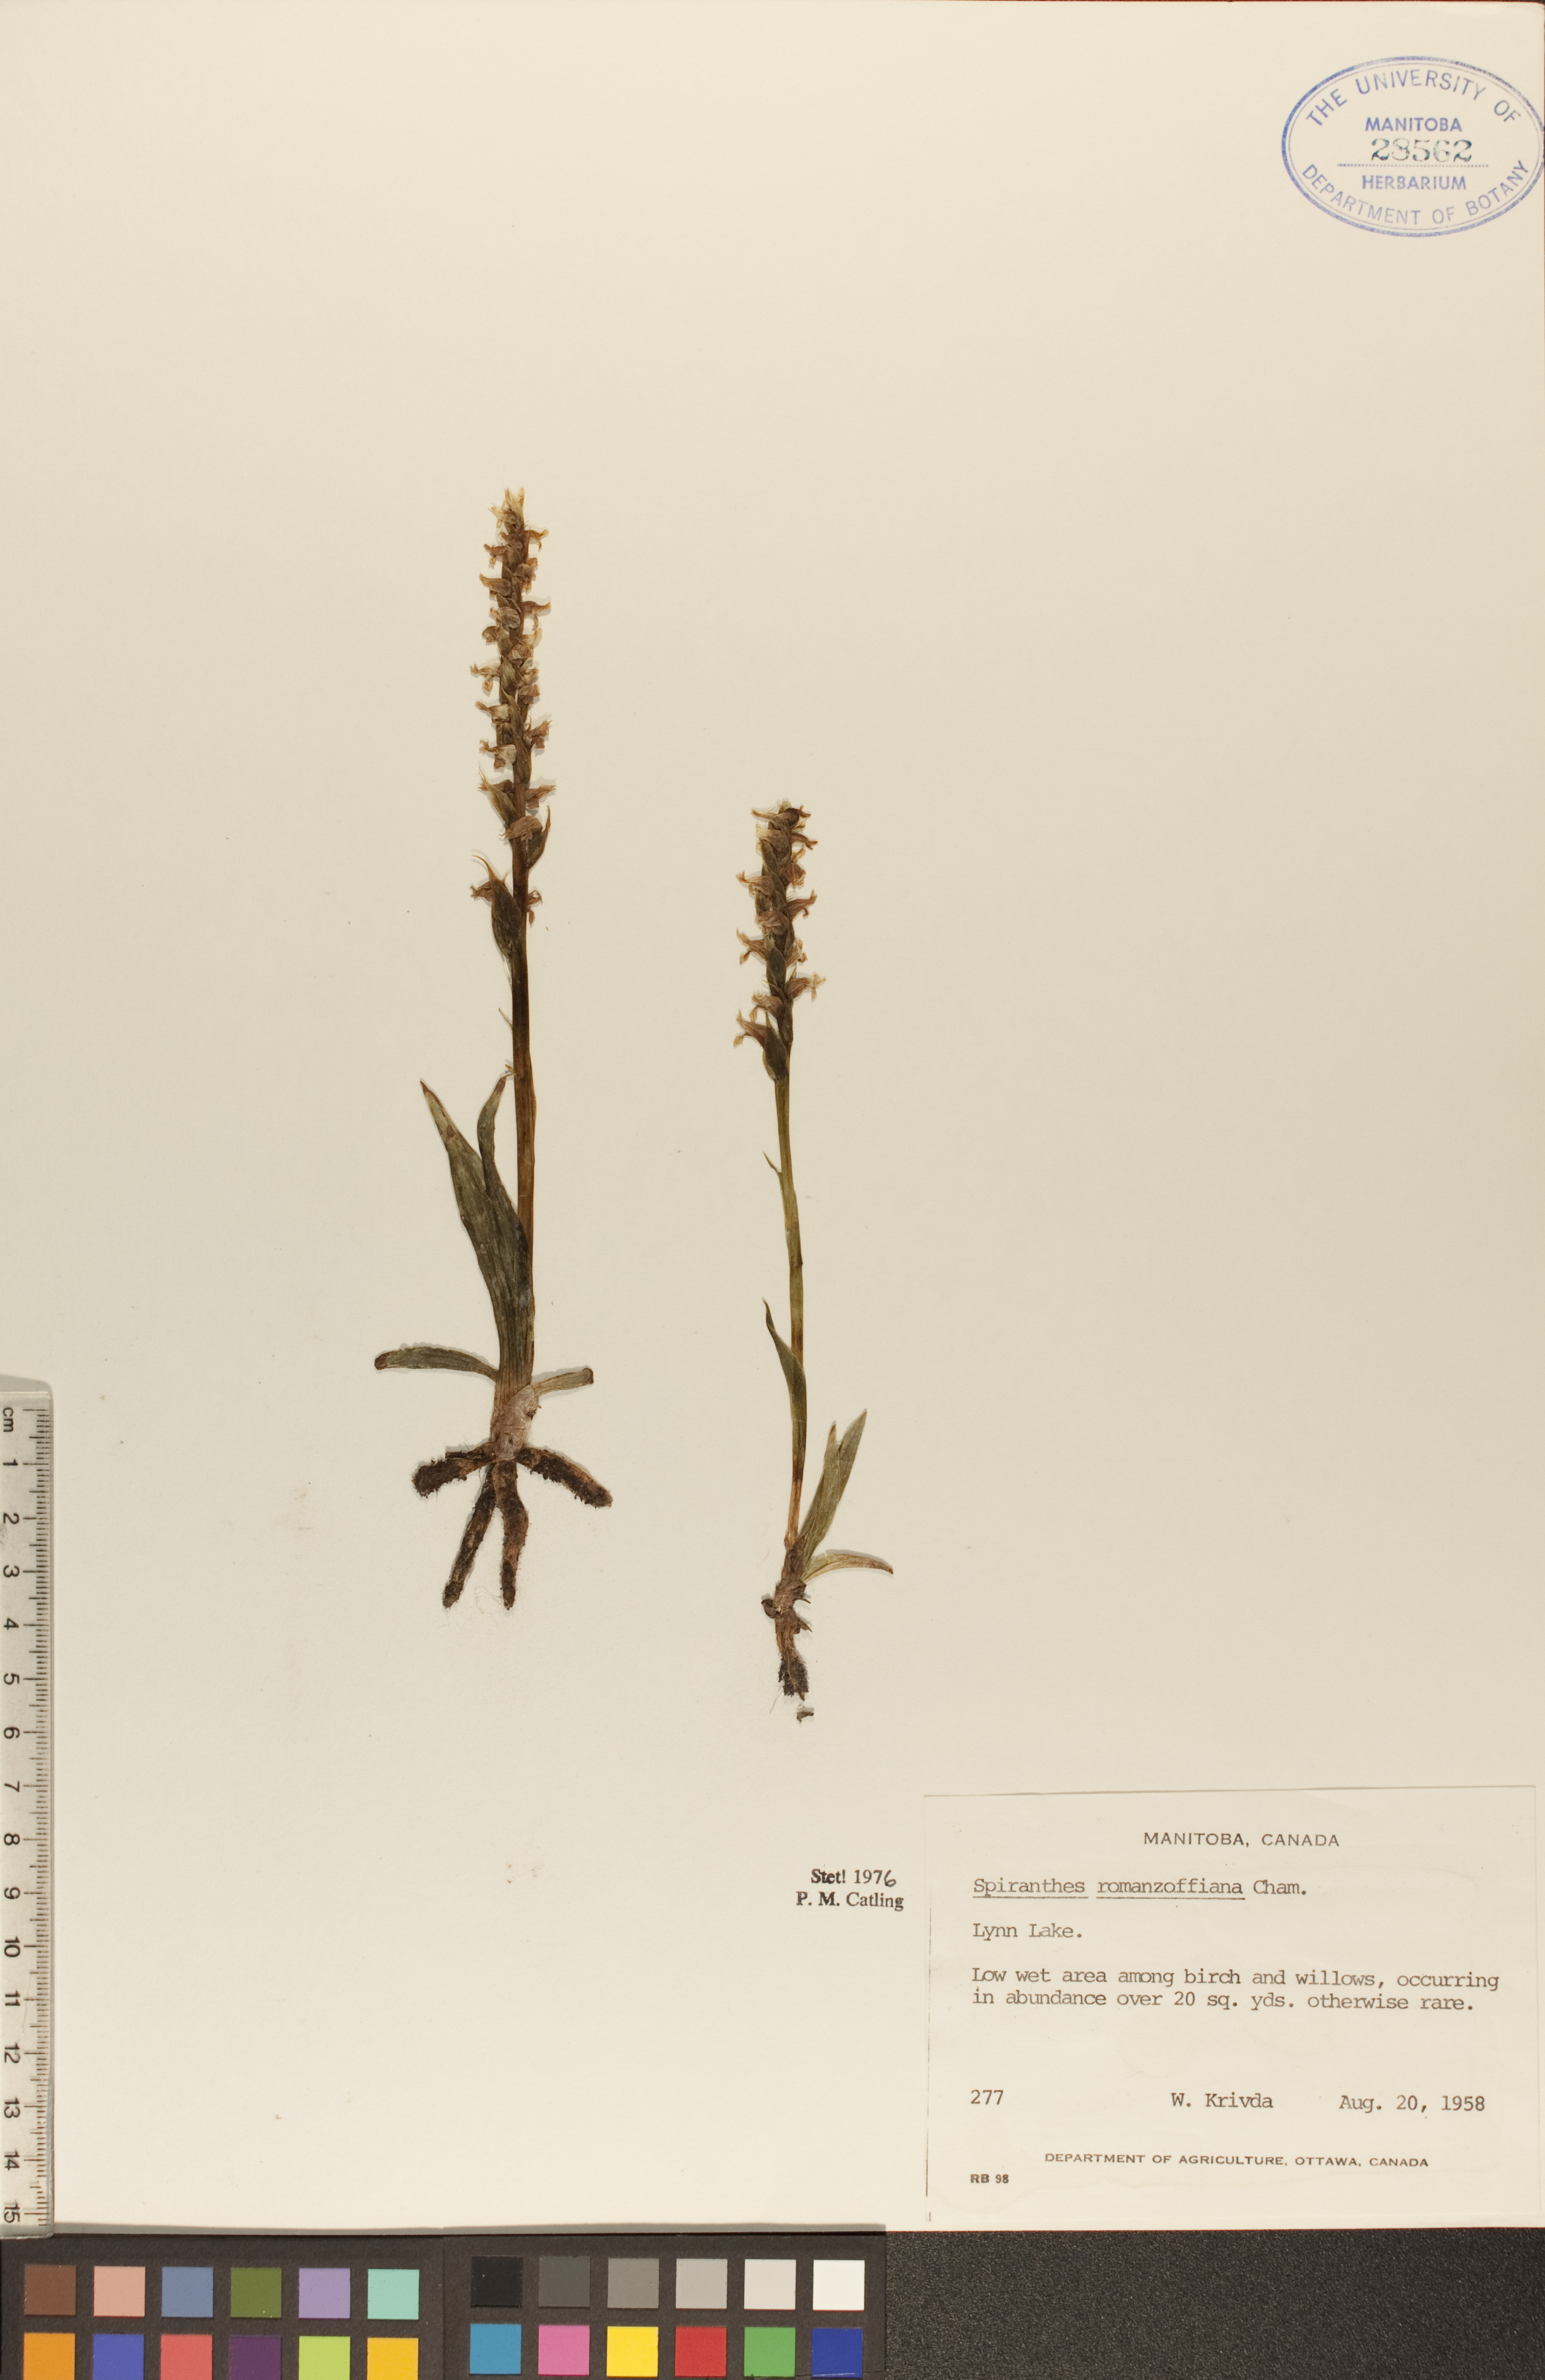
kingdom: Plantae
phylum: Tracheophyta
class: Liliopsida
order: Asparagales
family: Orchidaceae
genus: Spiranthes
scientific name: Spiranthes romanzoffiana
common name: Irish lady's-tresses
